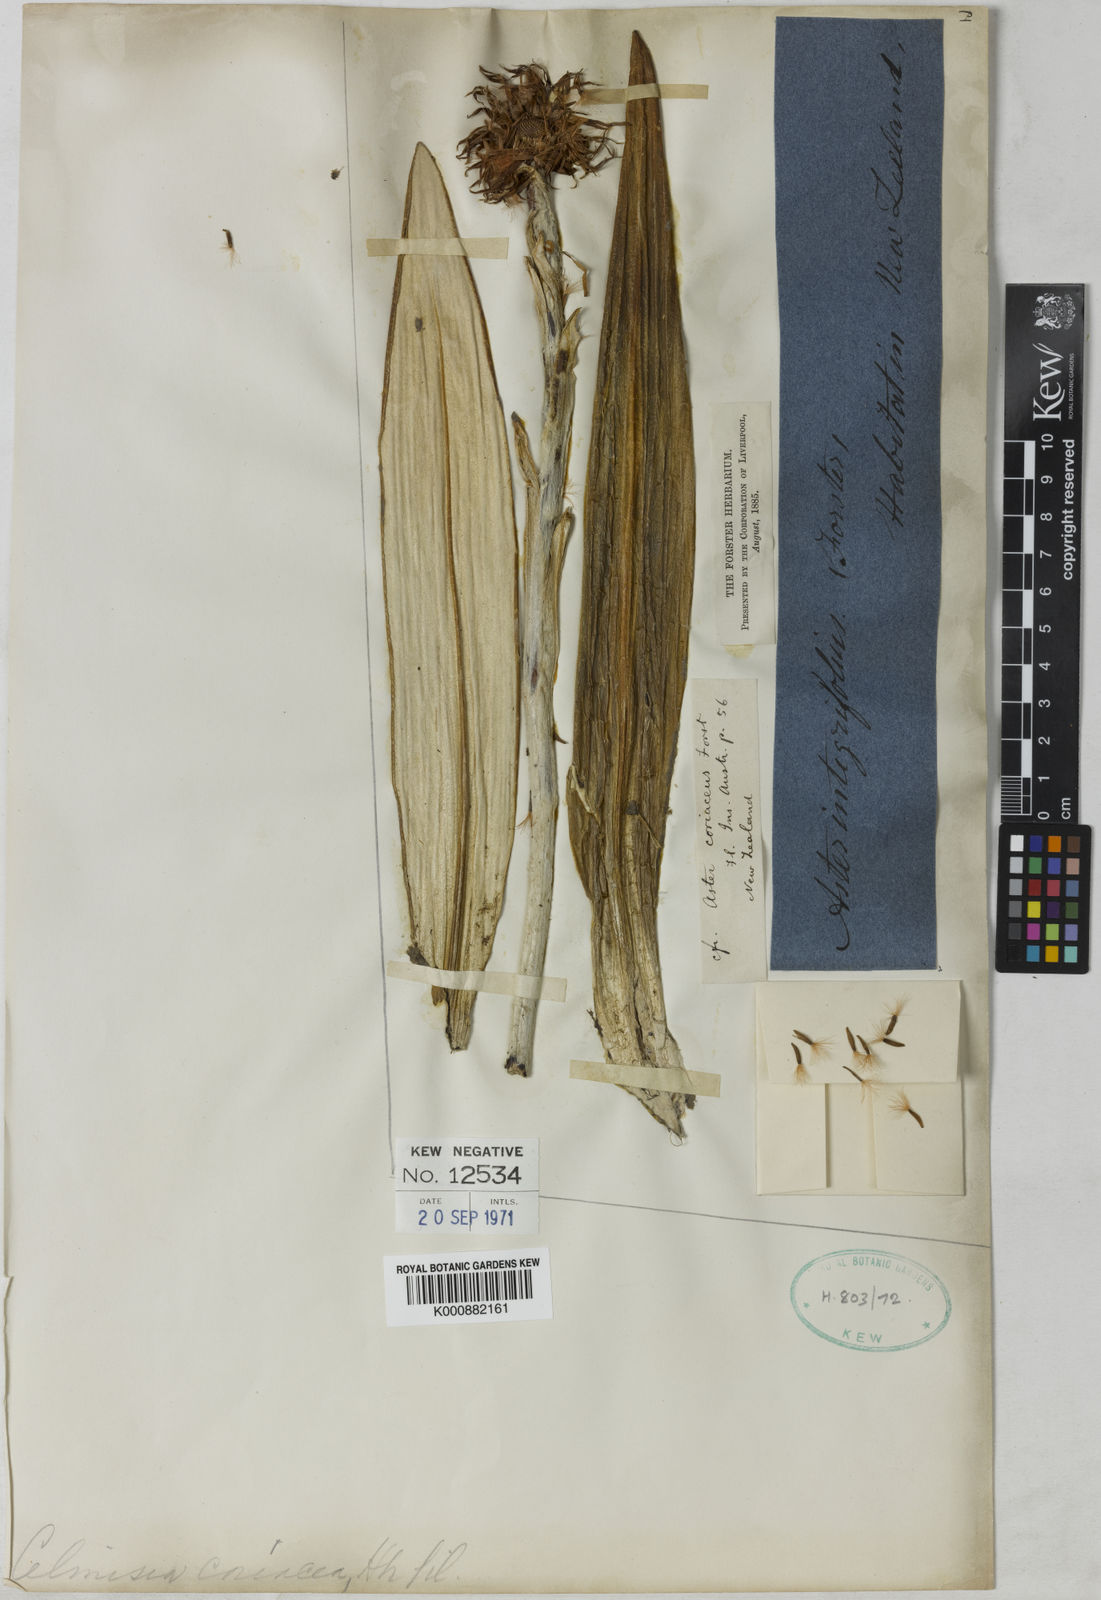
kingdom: Plantae
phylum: Tracheophyta
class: Magnoliopsida
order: Asterales
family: Asteraceae
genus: Celmisia
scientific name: Celmisia coriacea
